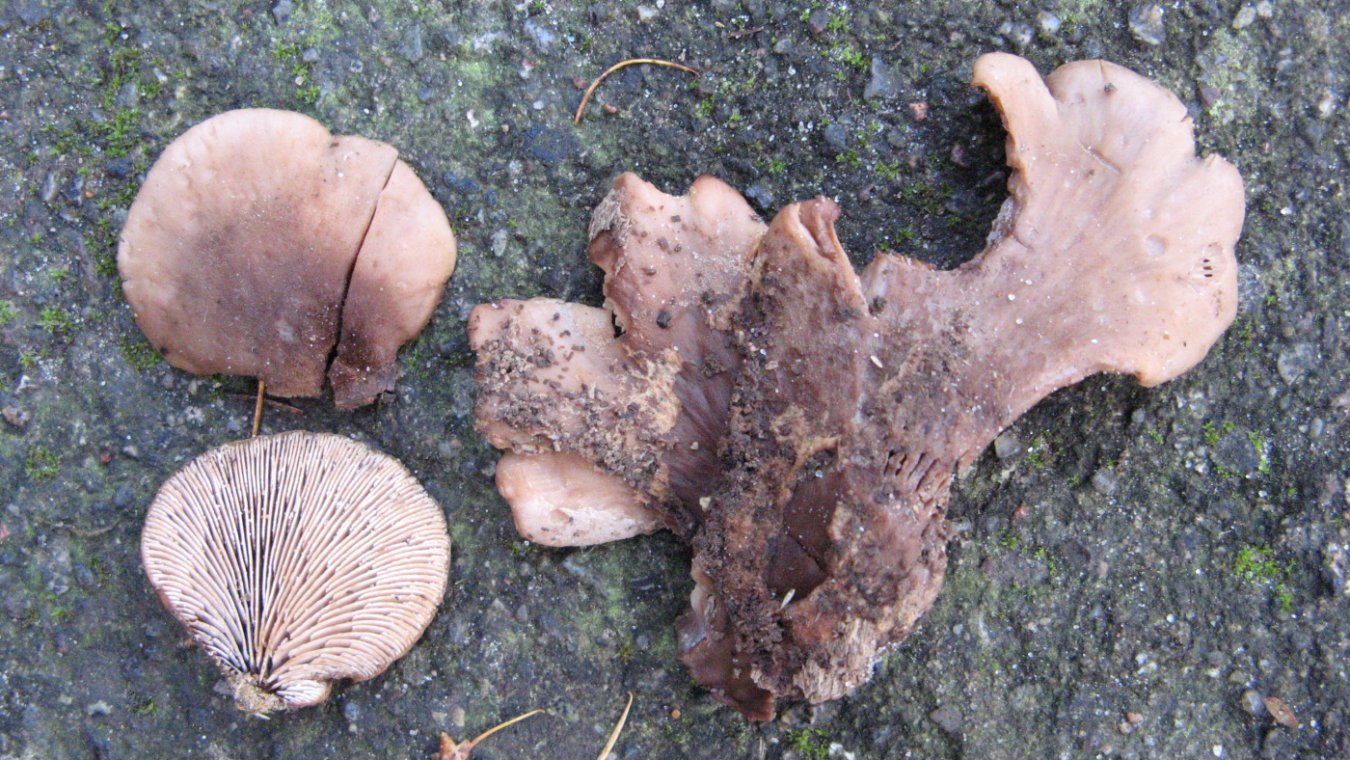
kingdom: Fungi
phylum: Basidiomycota
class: Agaricomycetes
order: Russulales
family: Auriscalpiaceae
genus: Lentinellus
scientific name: Lentinellus ursinus
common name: børstehåret savbladhat
